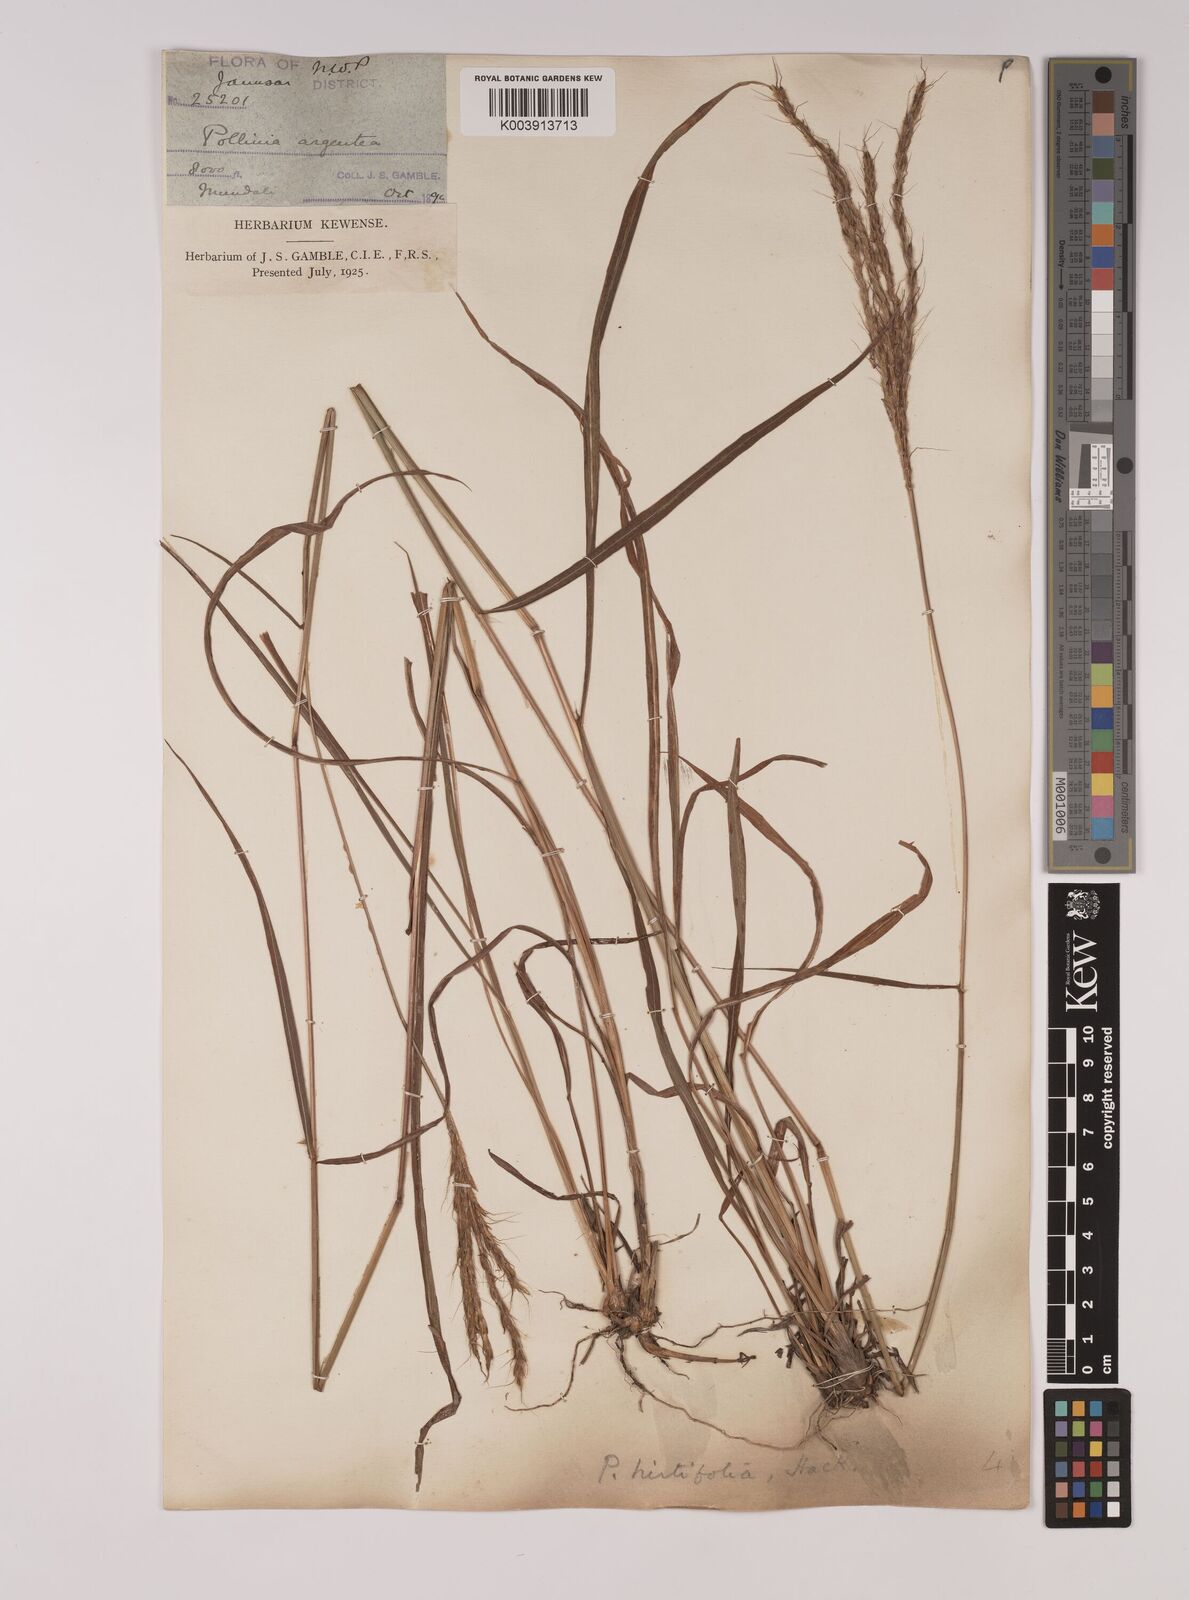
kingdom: Plantae
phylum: Tracheophyta
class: Liliopsida
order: Poales
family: Poaceae
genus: Eulalia
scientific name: Eulalia hirtifolia
